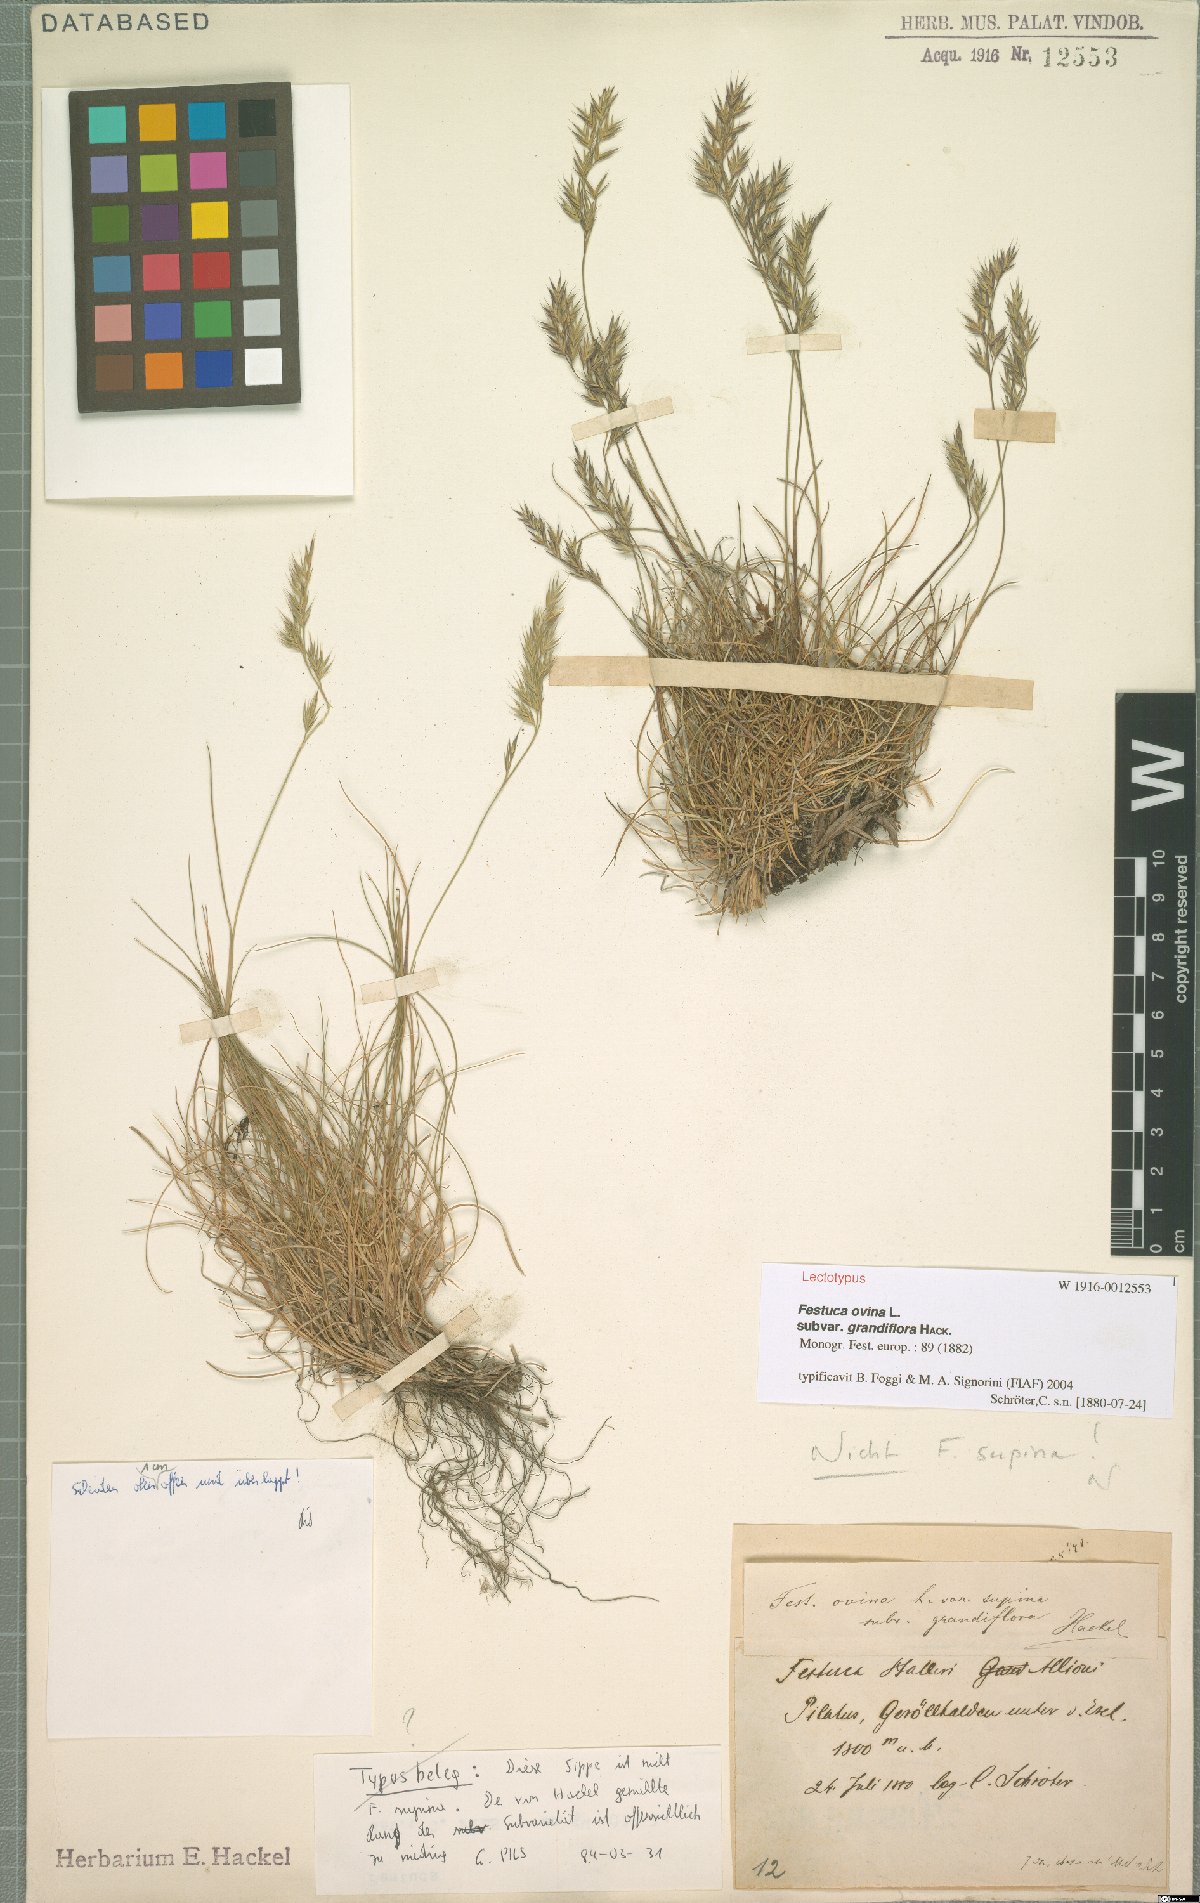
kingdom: Plantae
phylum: Tracheophyta
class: Liliopsida
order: Poales
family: Poaceae
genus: Festuca
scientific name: Festuca airoides
